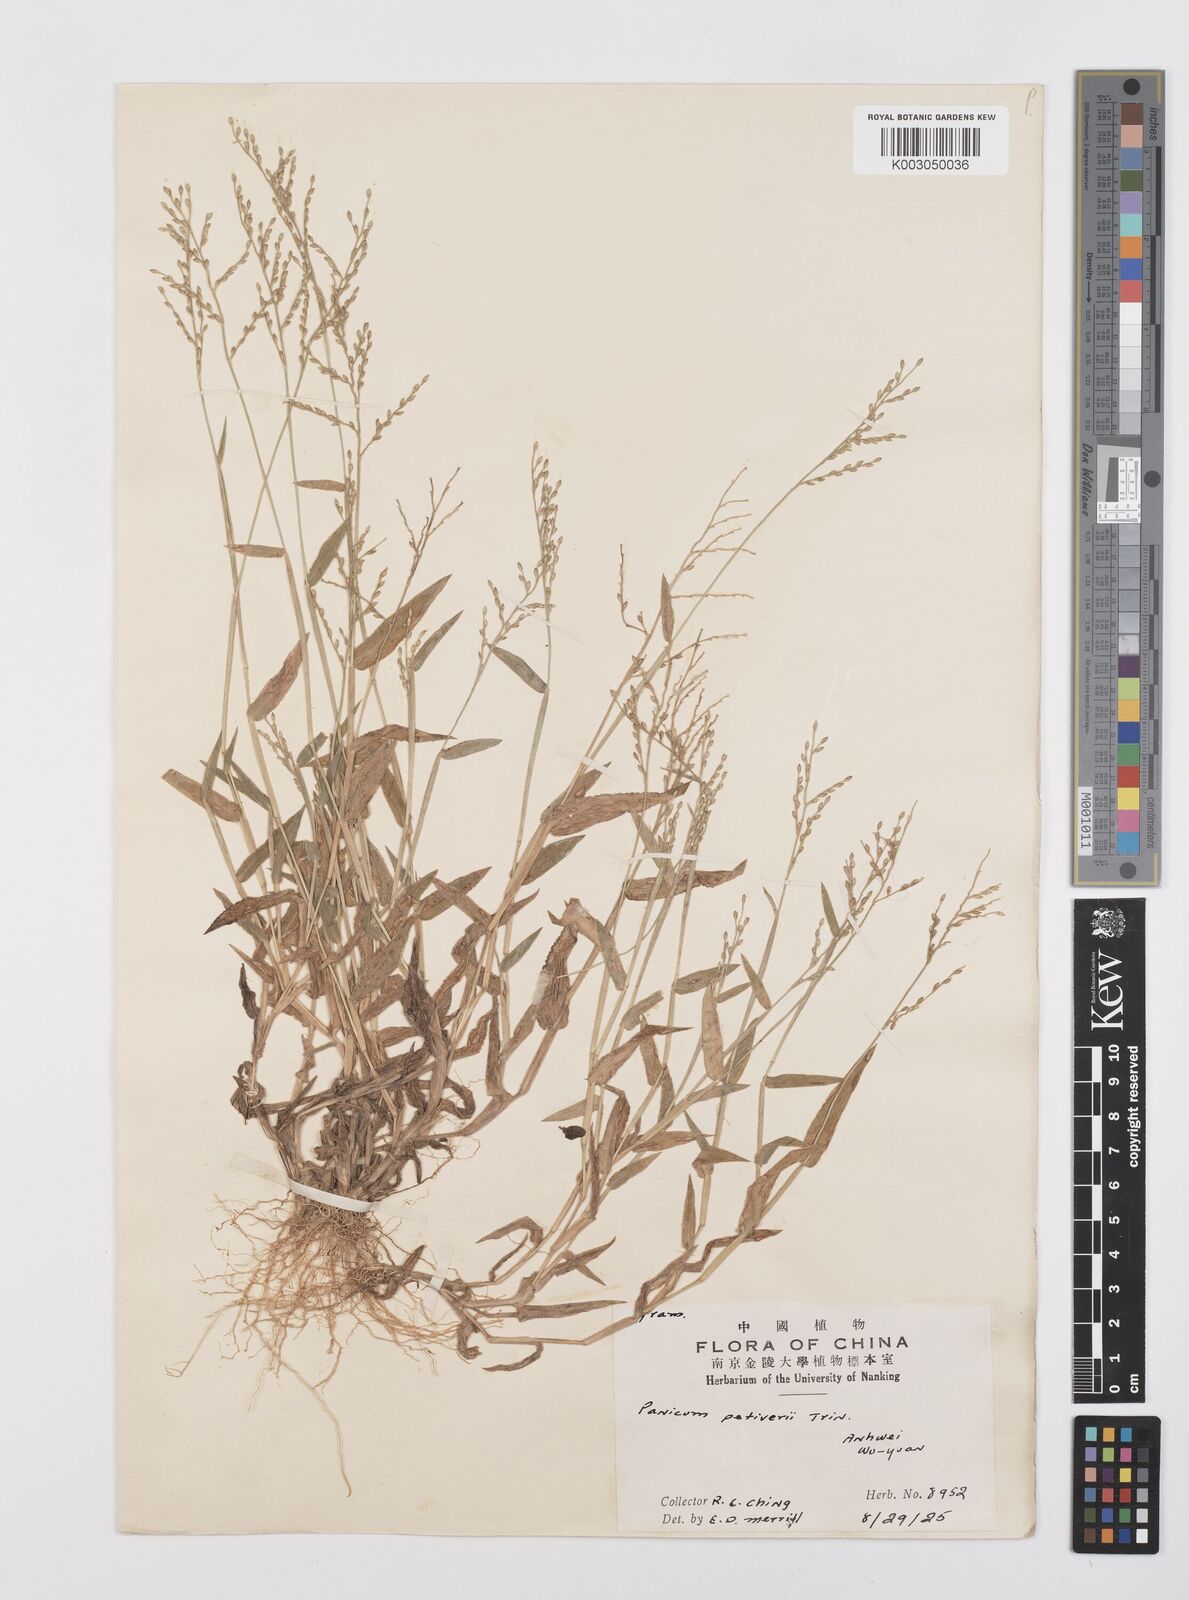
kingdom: Plantae
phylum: Tracheophyta
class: Liliopsida
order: Poales
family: Poaceae
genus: Urochloa
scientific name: Urochloa villosa
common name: Hairy signalgrass
